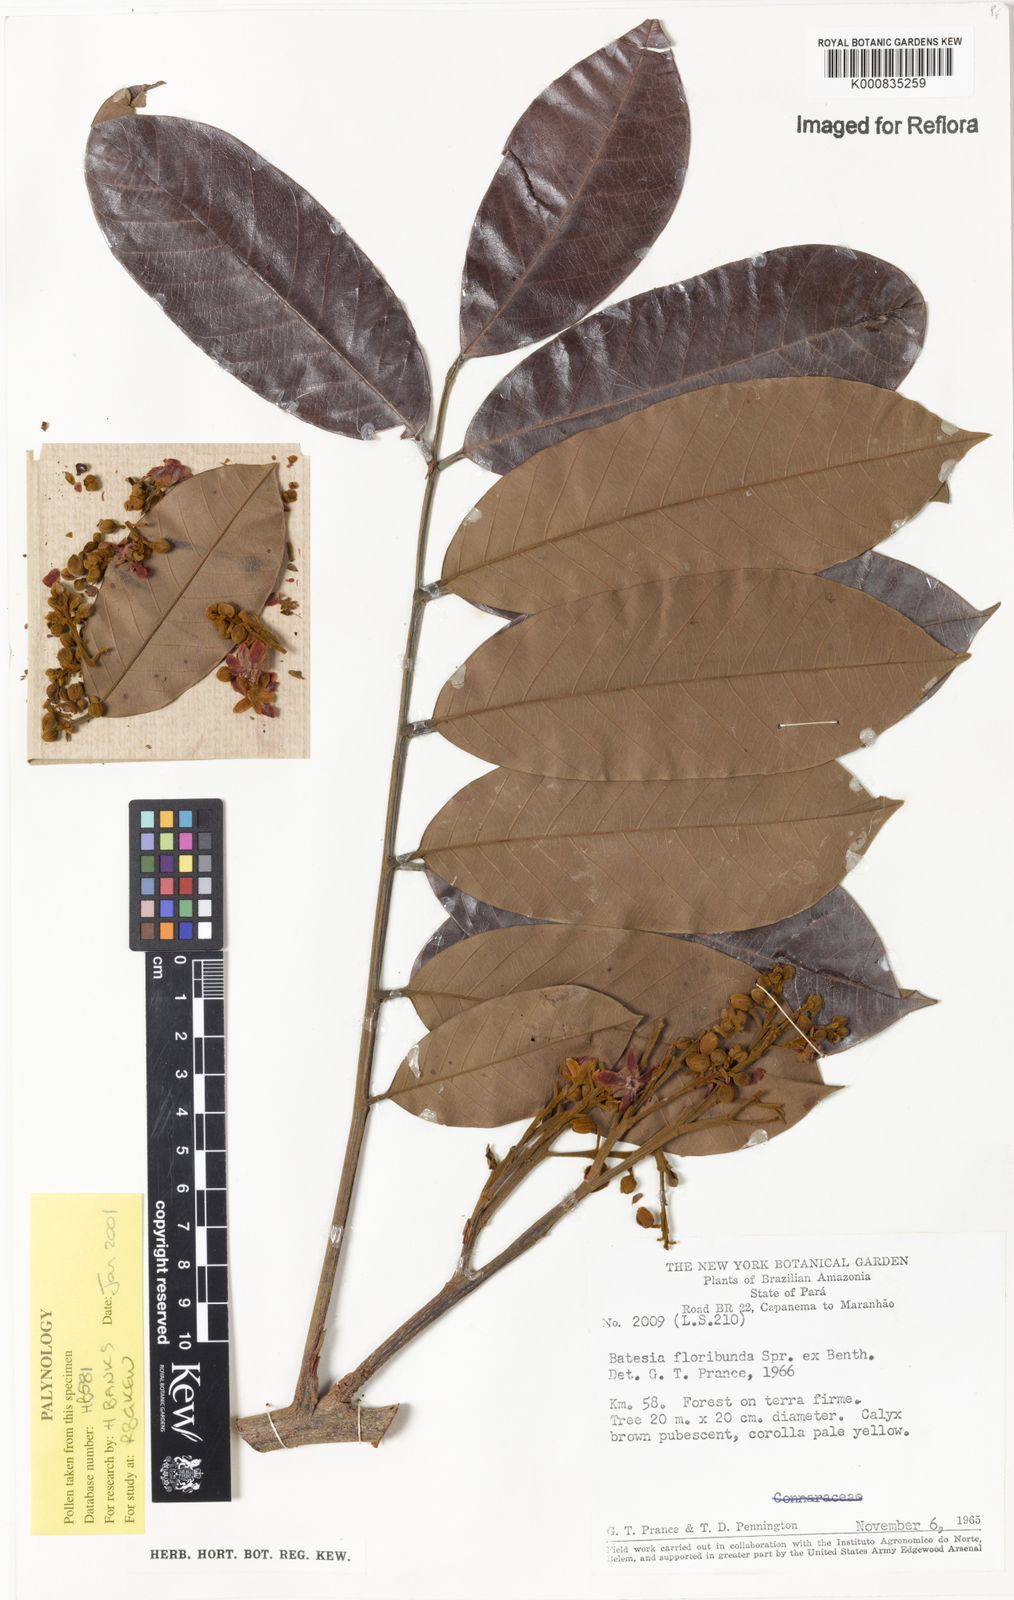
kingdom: Plantae
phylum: Tracheophyta
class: Magnoliopsida
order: Fabales
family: Fabaceae
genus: Batesia
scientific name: Batesia floribunda
